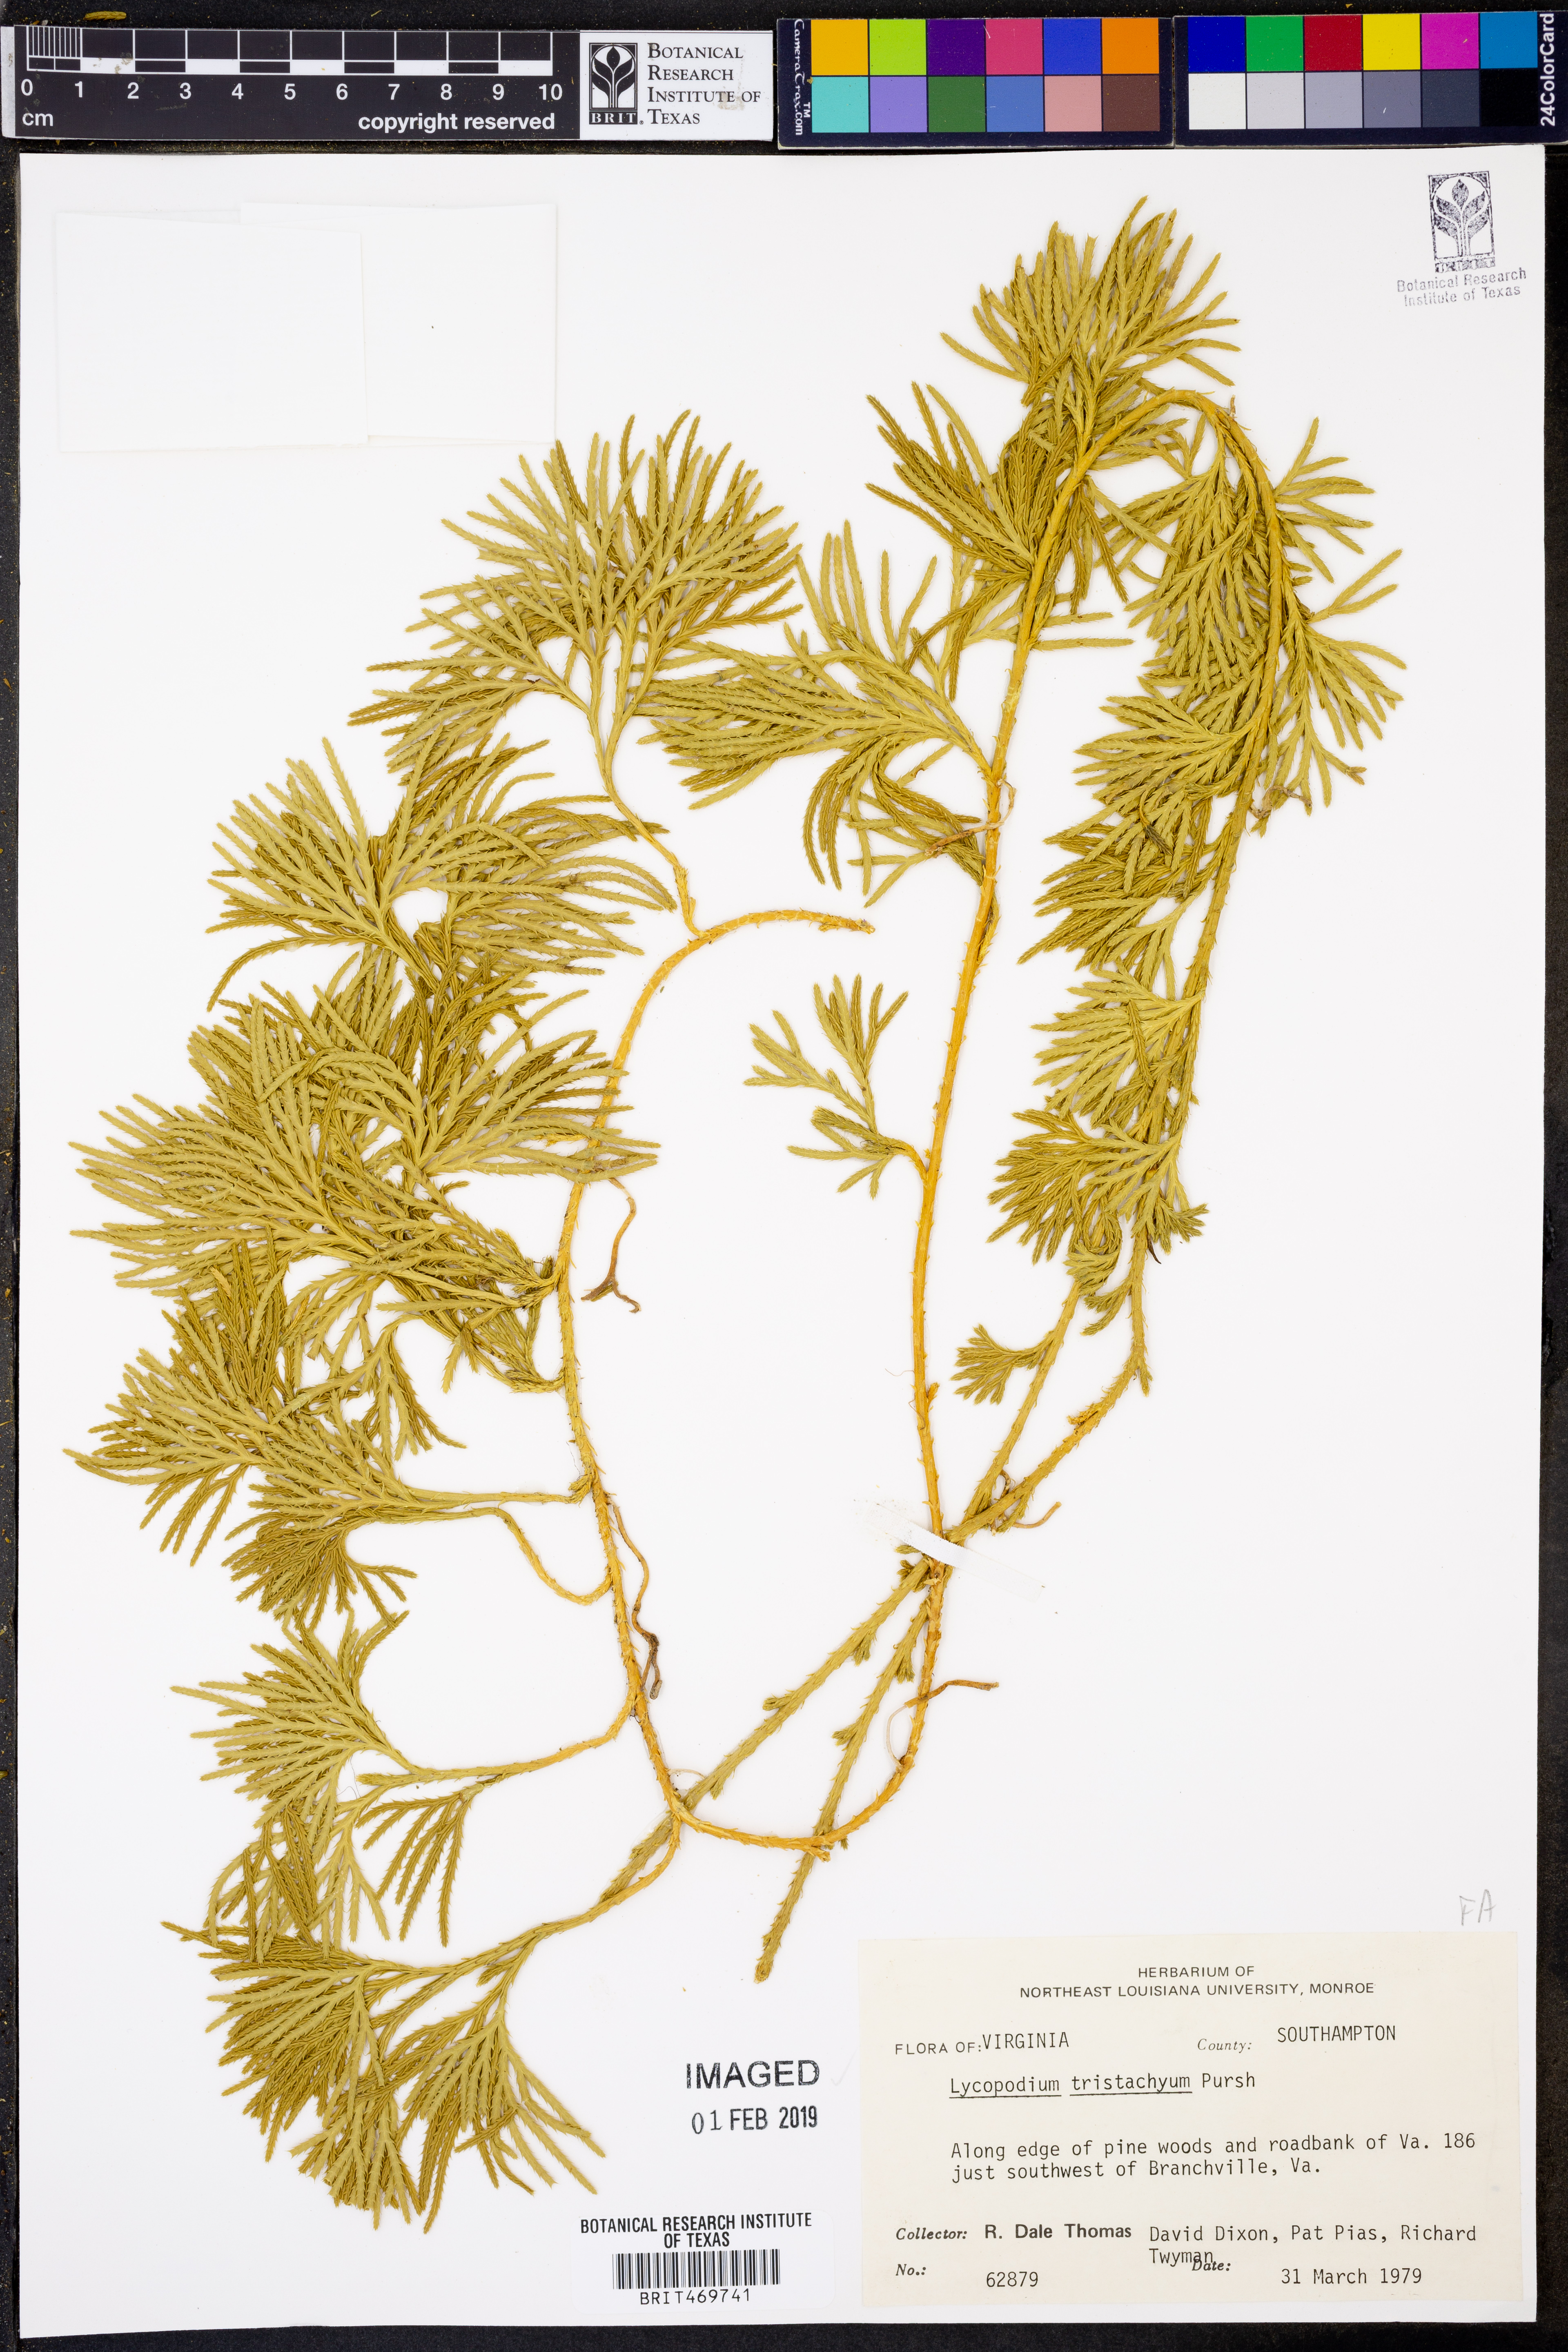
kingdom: Plantae
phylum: Tracheophyta
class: Lycopodiopsida
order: Lycopodiales
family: Lycopodiaceae
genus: Diphasiastrum
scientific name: Diphasiastrum tristachyum
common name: Blue ground-cedar
